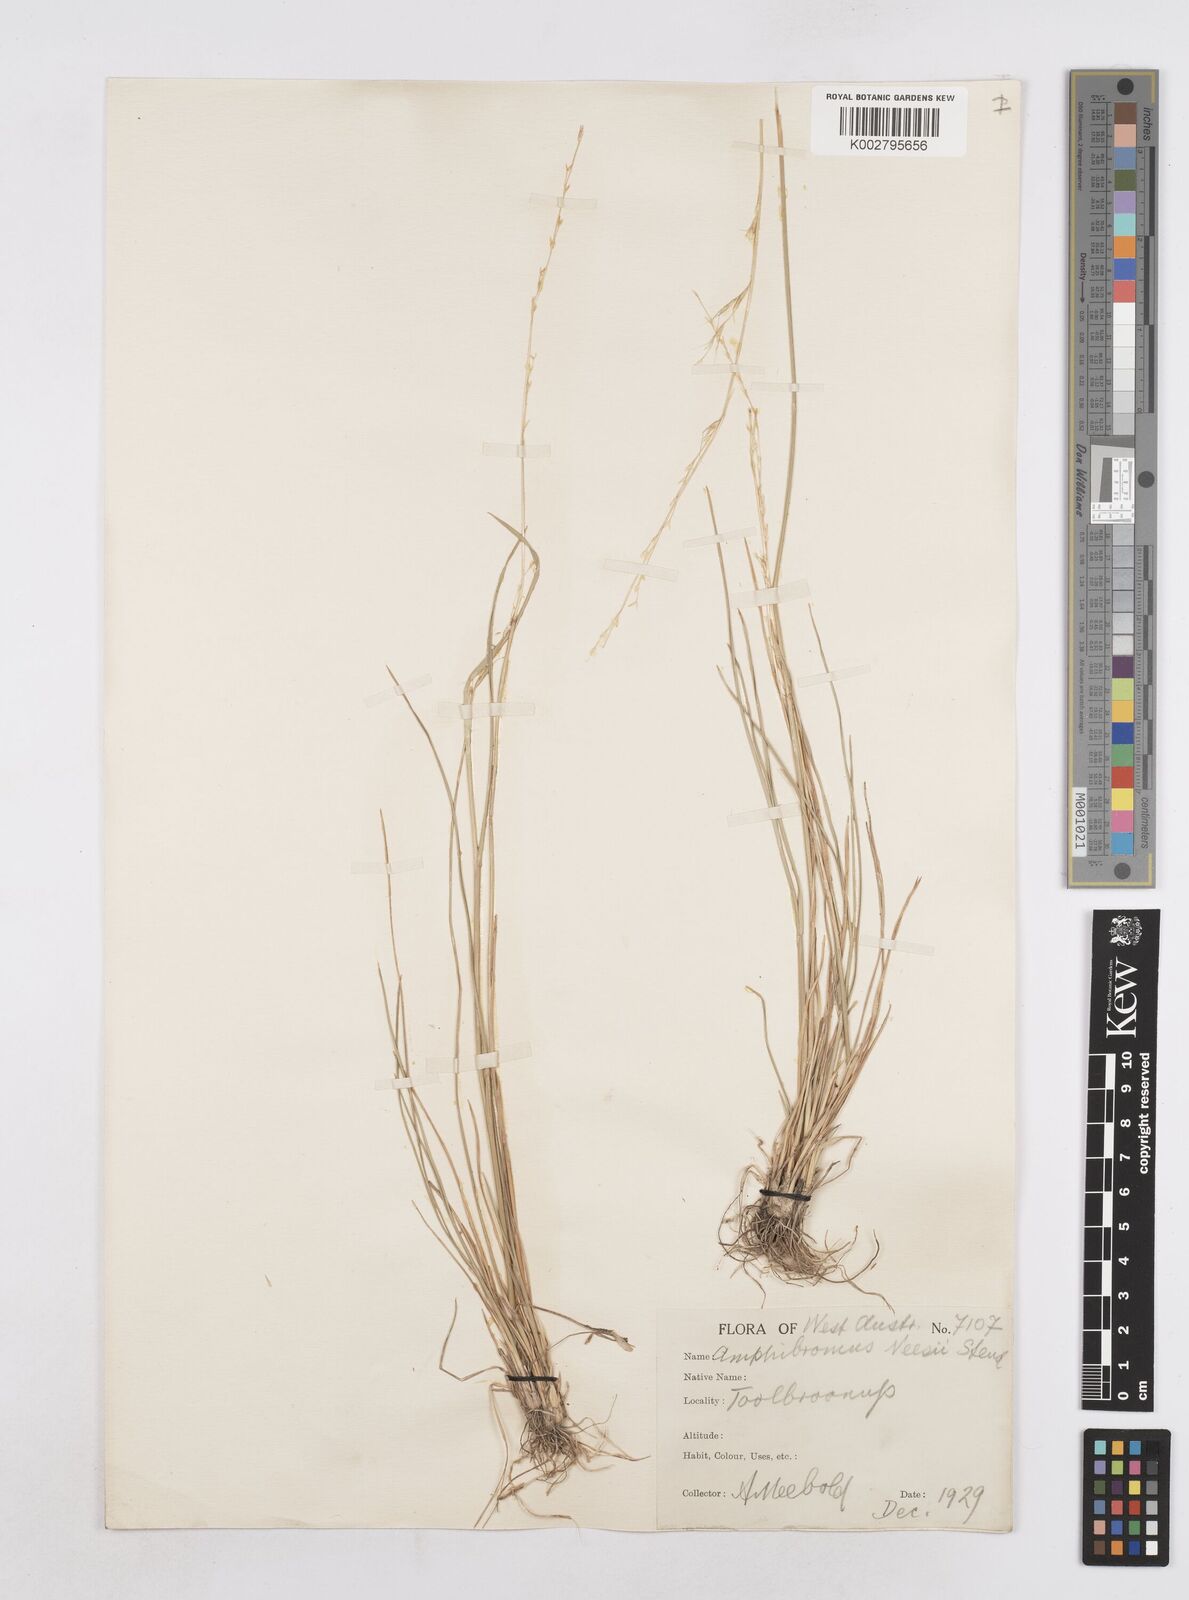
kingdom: Plantae
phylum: Tracheophyta
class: Liliopsida
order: Poales
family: Poaceae
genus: Amphibromus
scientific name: Amphibromus neesii
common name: Australian wallaby grass
